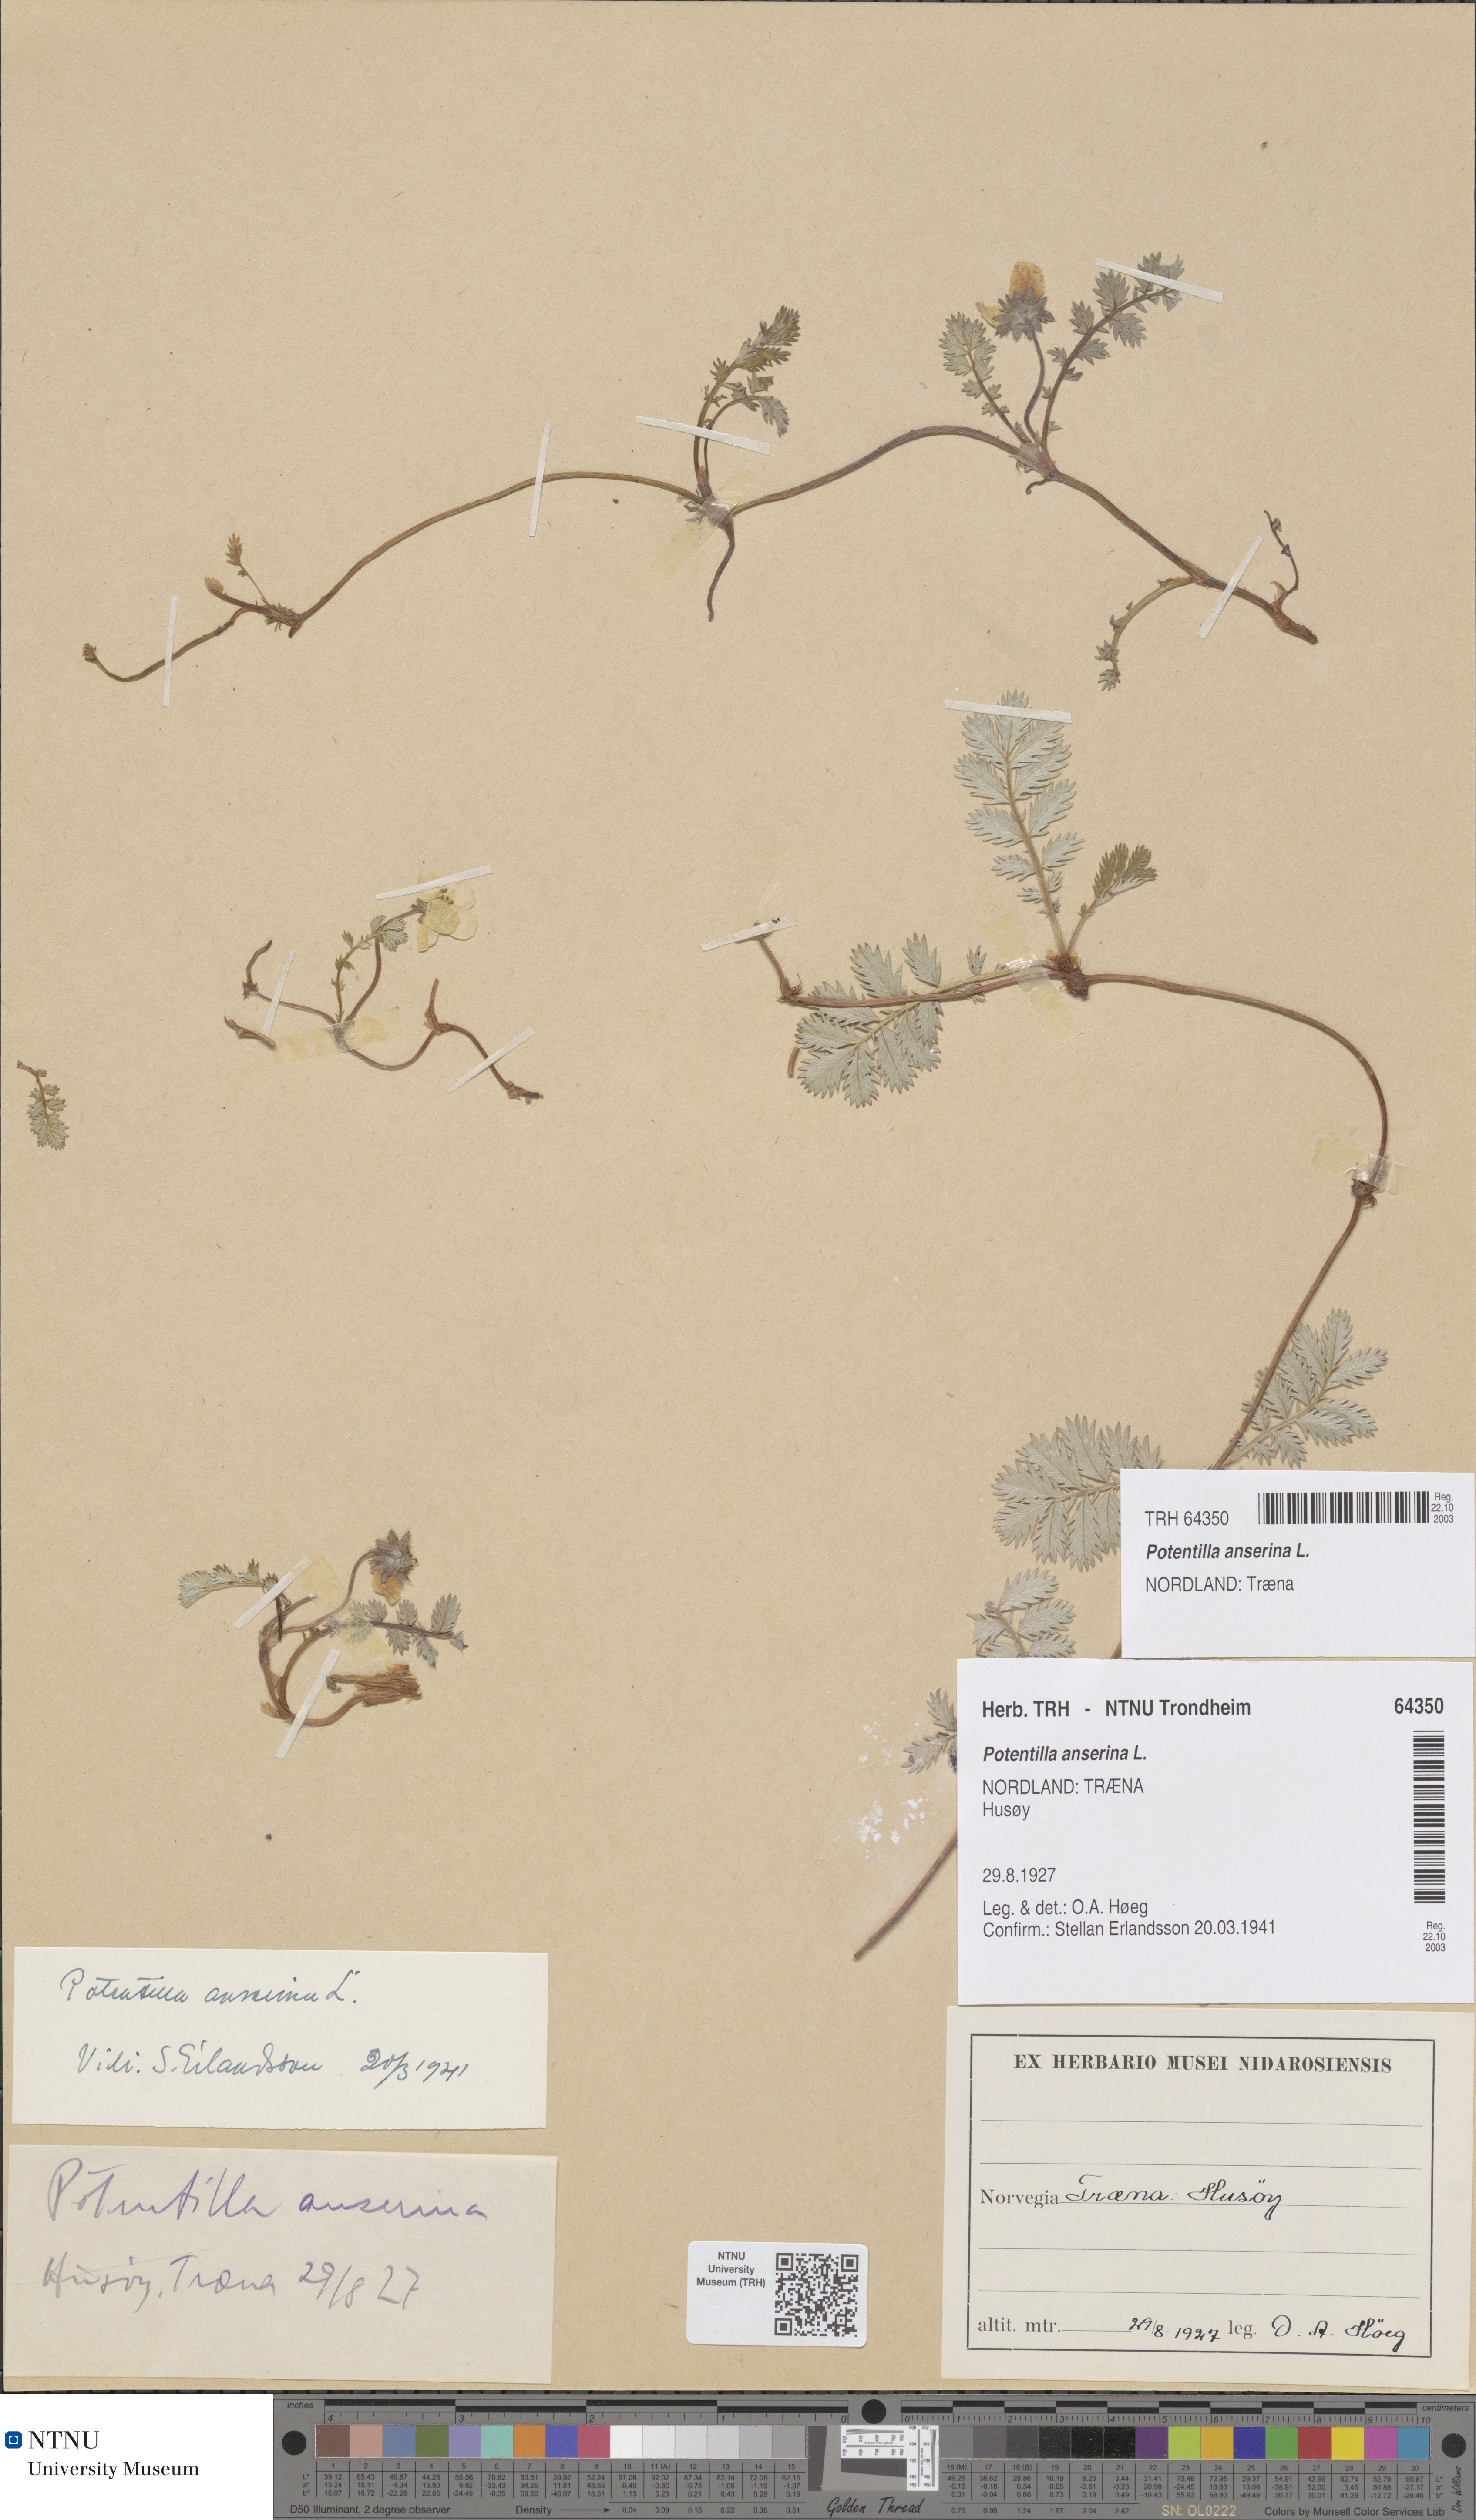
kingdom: Plantae
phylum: Tracheophyta
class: Magnoliopsida
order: Rosales
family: Rosaceae
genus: Argentina
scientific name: Argentina anserina
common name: Common silverweed
